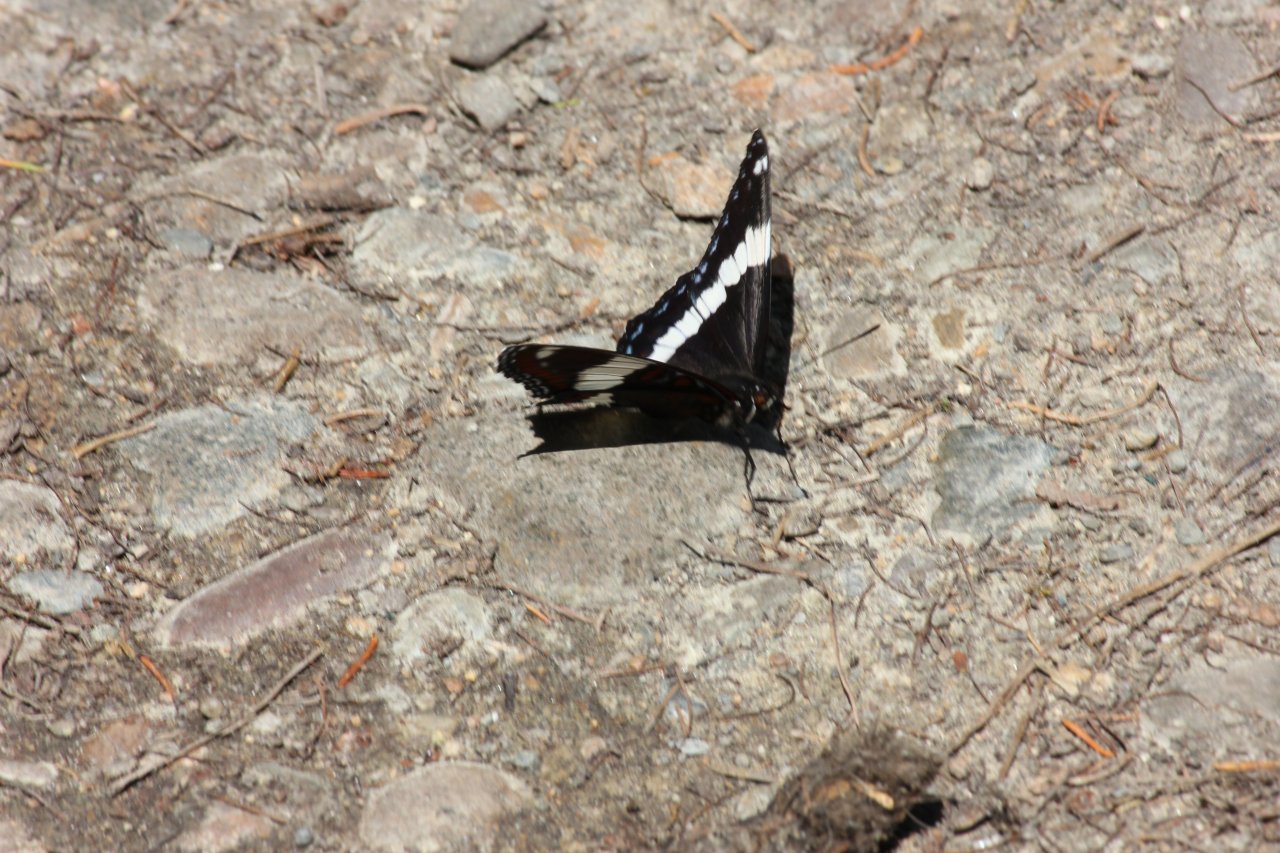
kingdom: Animalia
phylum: Arthropoda
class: Insecta
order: Lepidoptera
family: Nymphalidae
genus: Limenitis
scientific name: Limenitis arthemis
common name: Red-spotted Admiral
